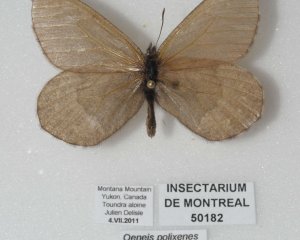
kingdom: Animalia
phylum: Arthropoda
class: Insecta
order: Lepidoptera
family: Nymphalidae
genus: Oeneis
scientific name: Oeneis bore
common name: Polixenes Arctic
